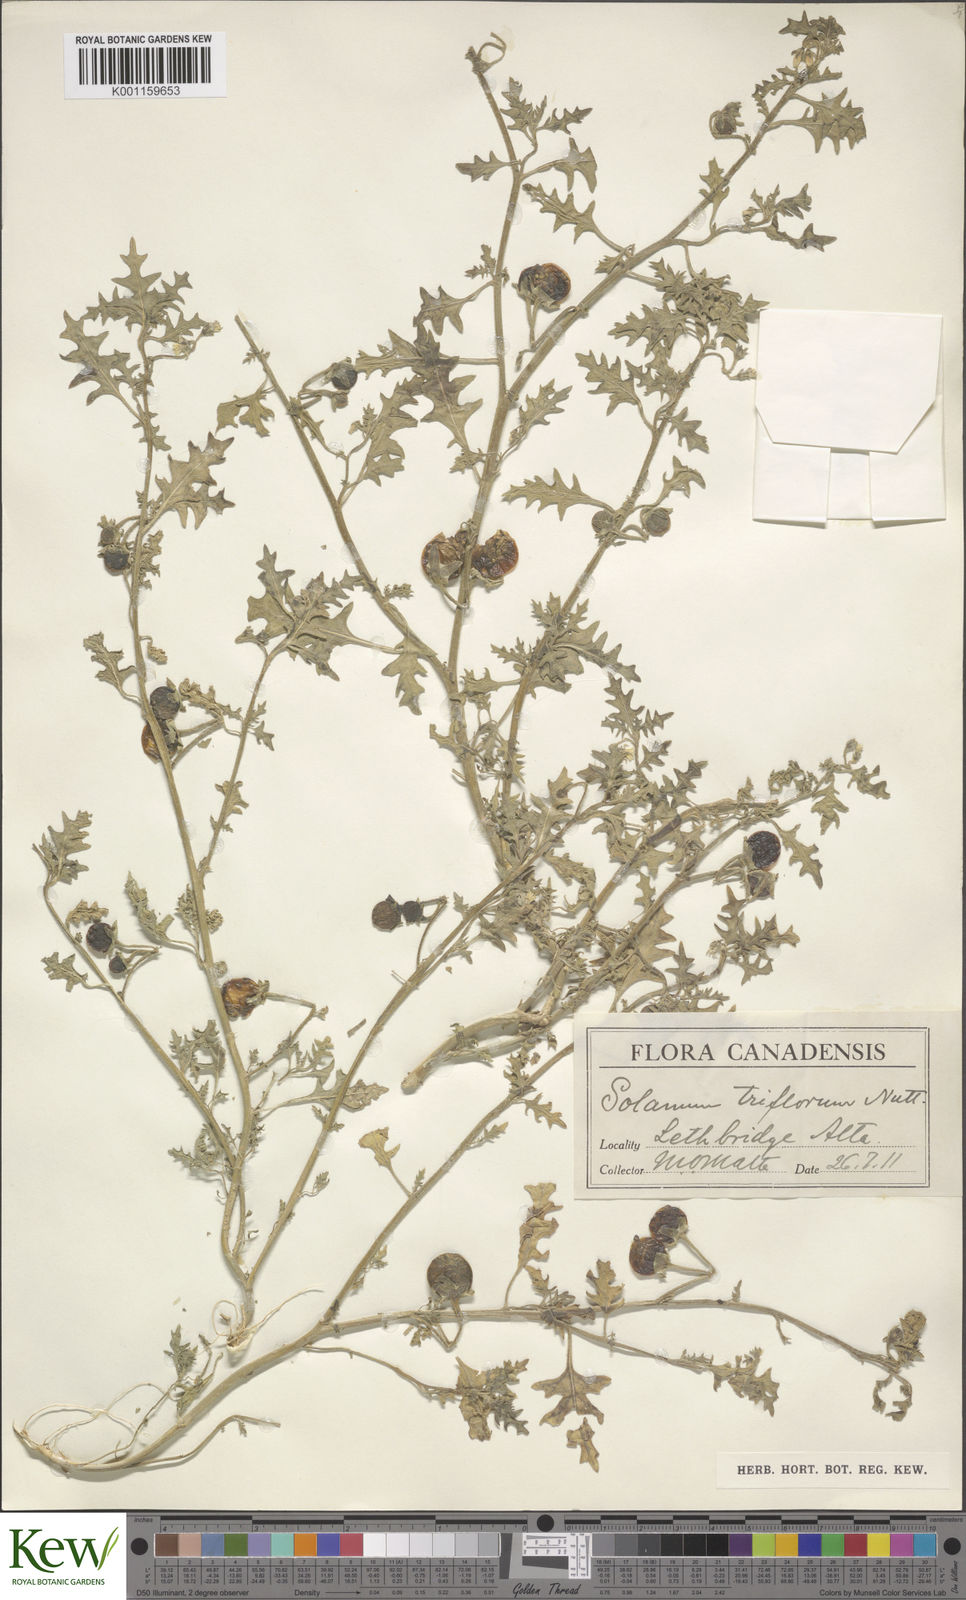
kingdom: Plantae
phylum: Tracheophyta
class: Magnoliopsida
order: Solanales
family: Solanaceae
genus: Solanum
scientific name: Solanum triflorum
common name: Small nightshade
